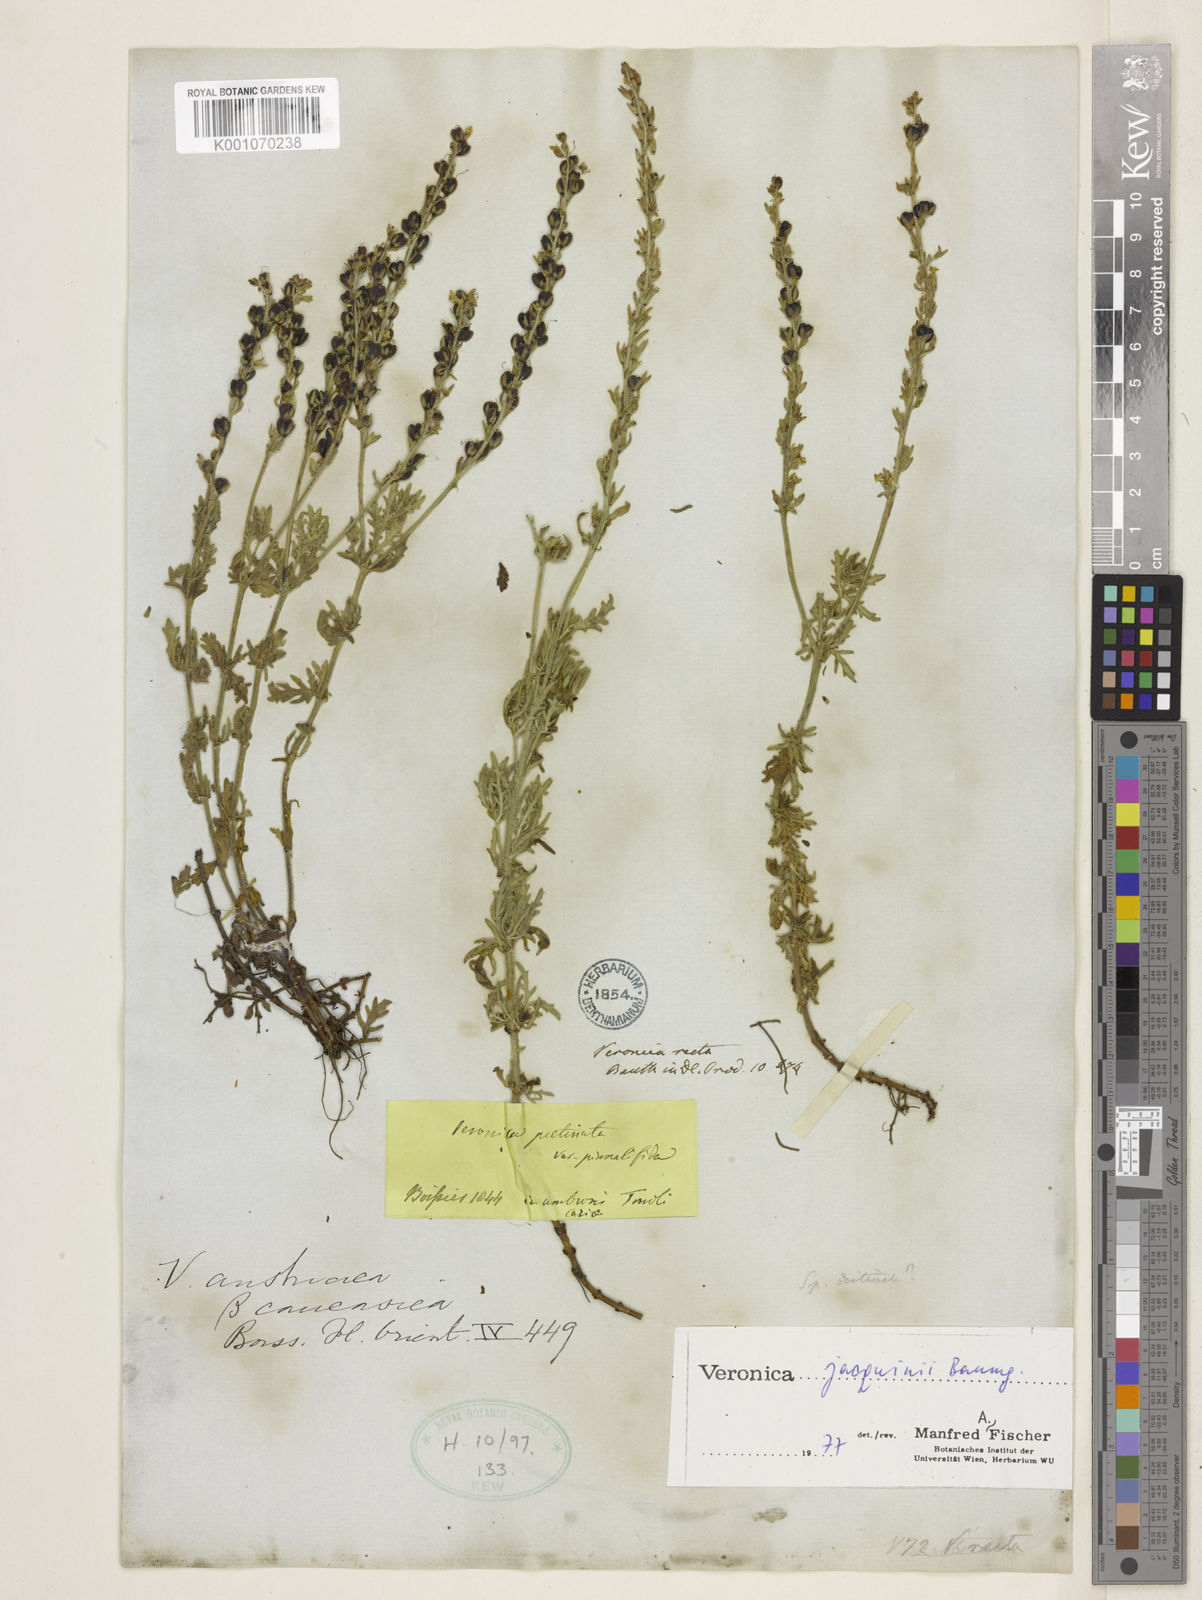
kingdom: Plantae
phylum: Tracheophyta
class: Magnoliopsida
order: Lamiales
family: Plantaginaceae
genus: Veronica
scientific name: Veronica austriaca
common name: Large speedwell
